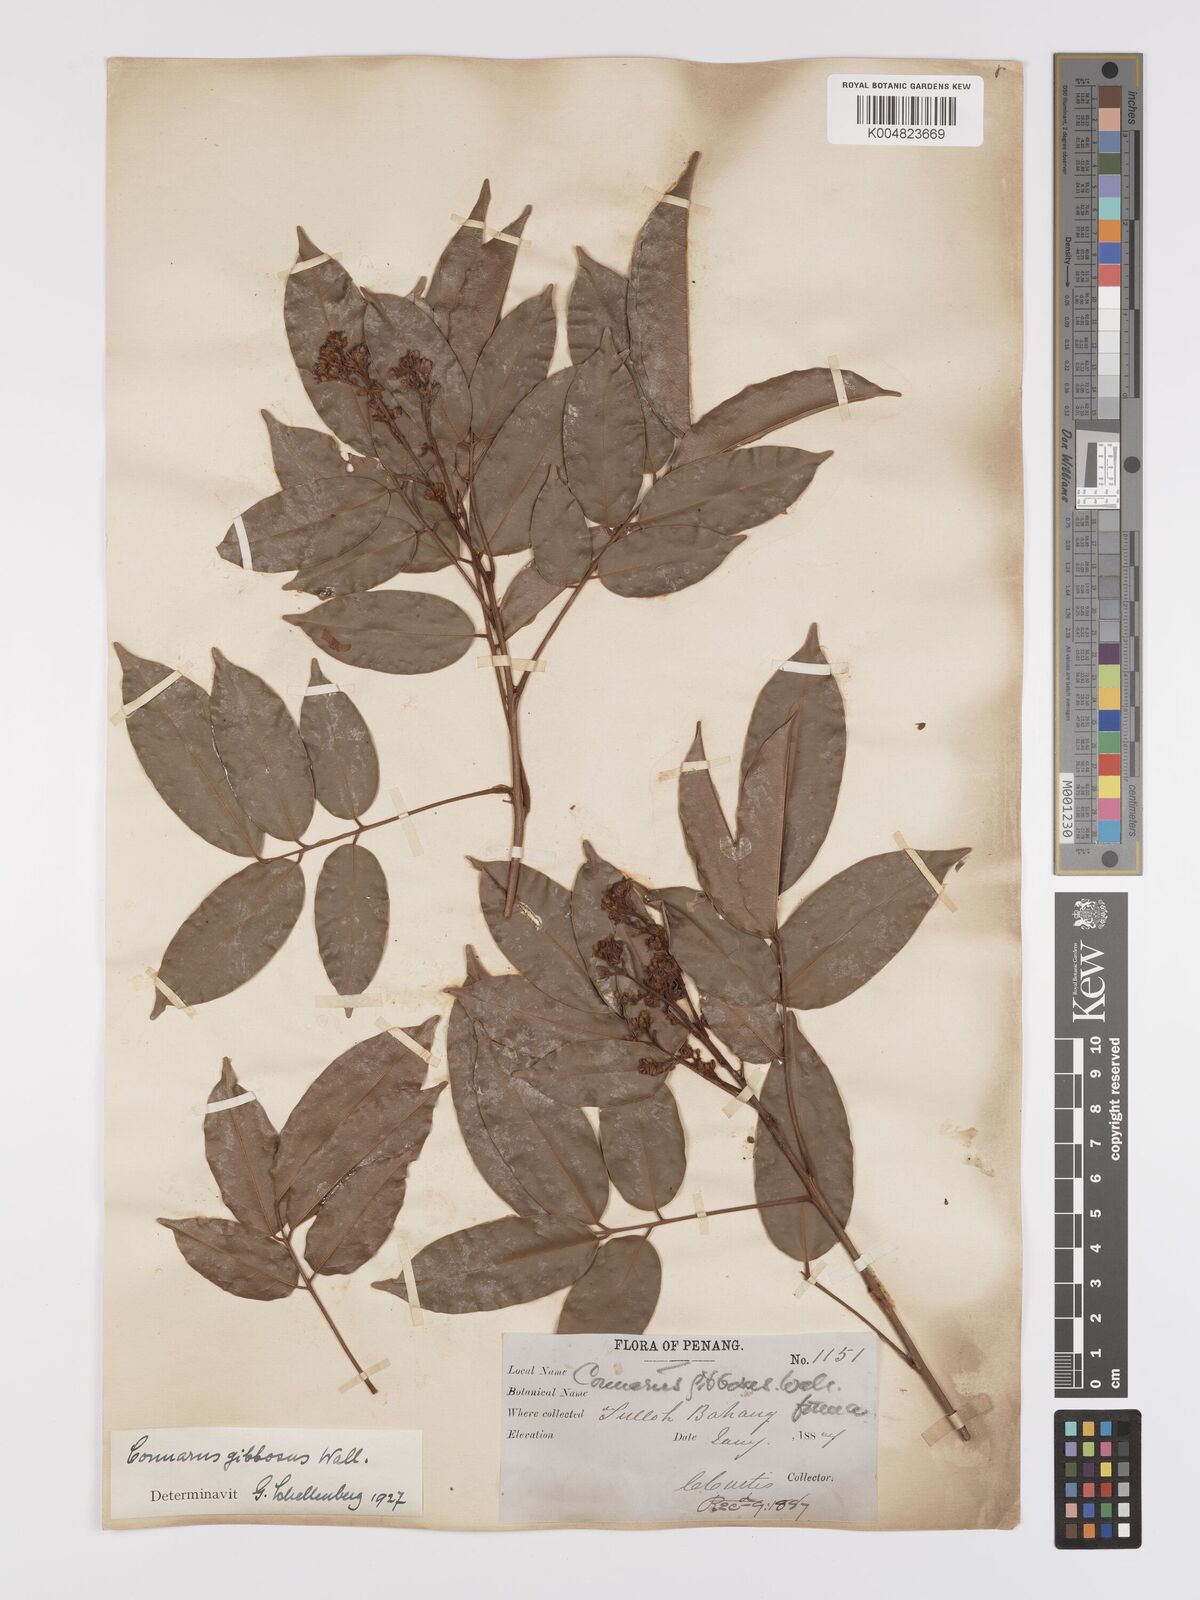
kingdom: Plantae
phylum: Tracheophyta
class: Magnoliopsida
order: Oxalidales
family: Connaraceae
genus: Connarus
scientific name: Connarus semidecandrus
